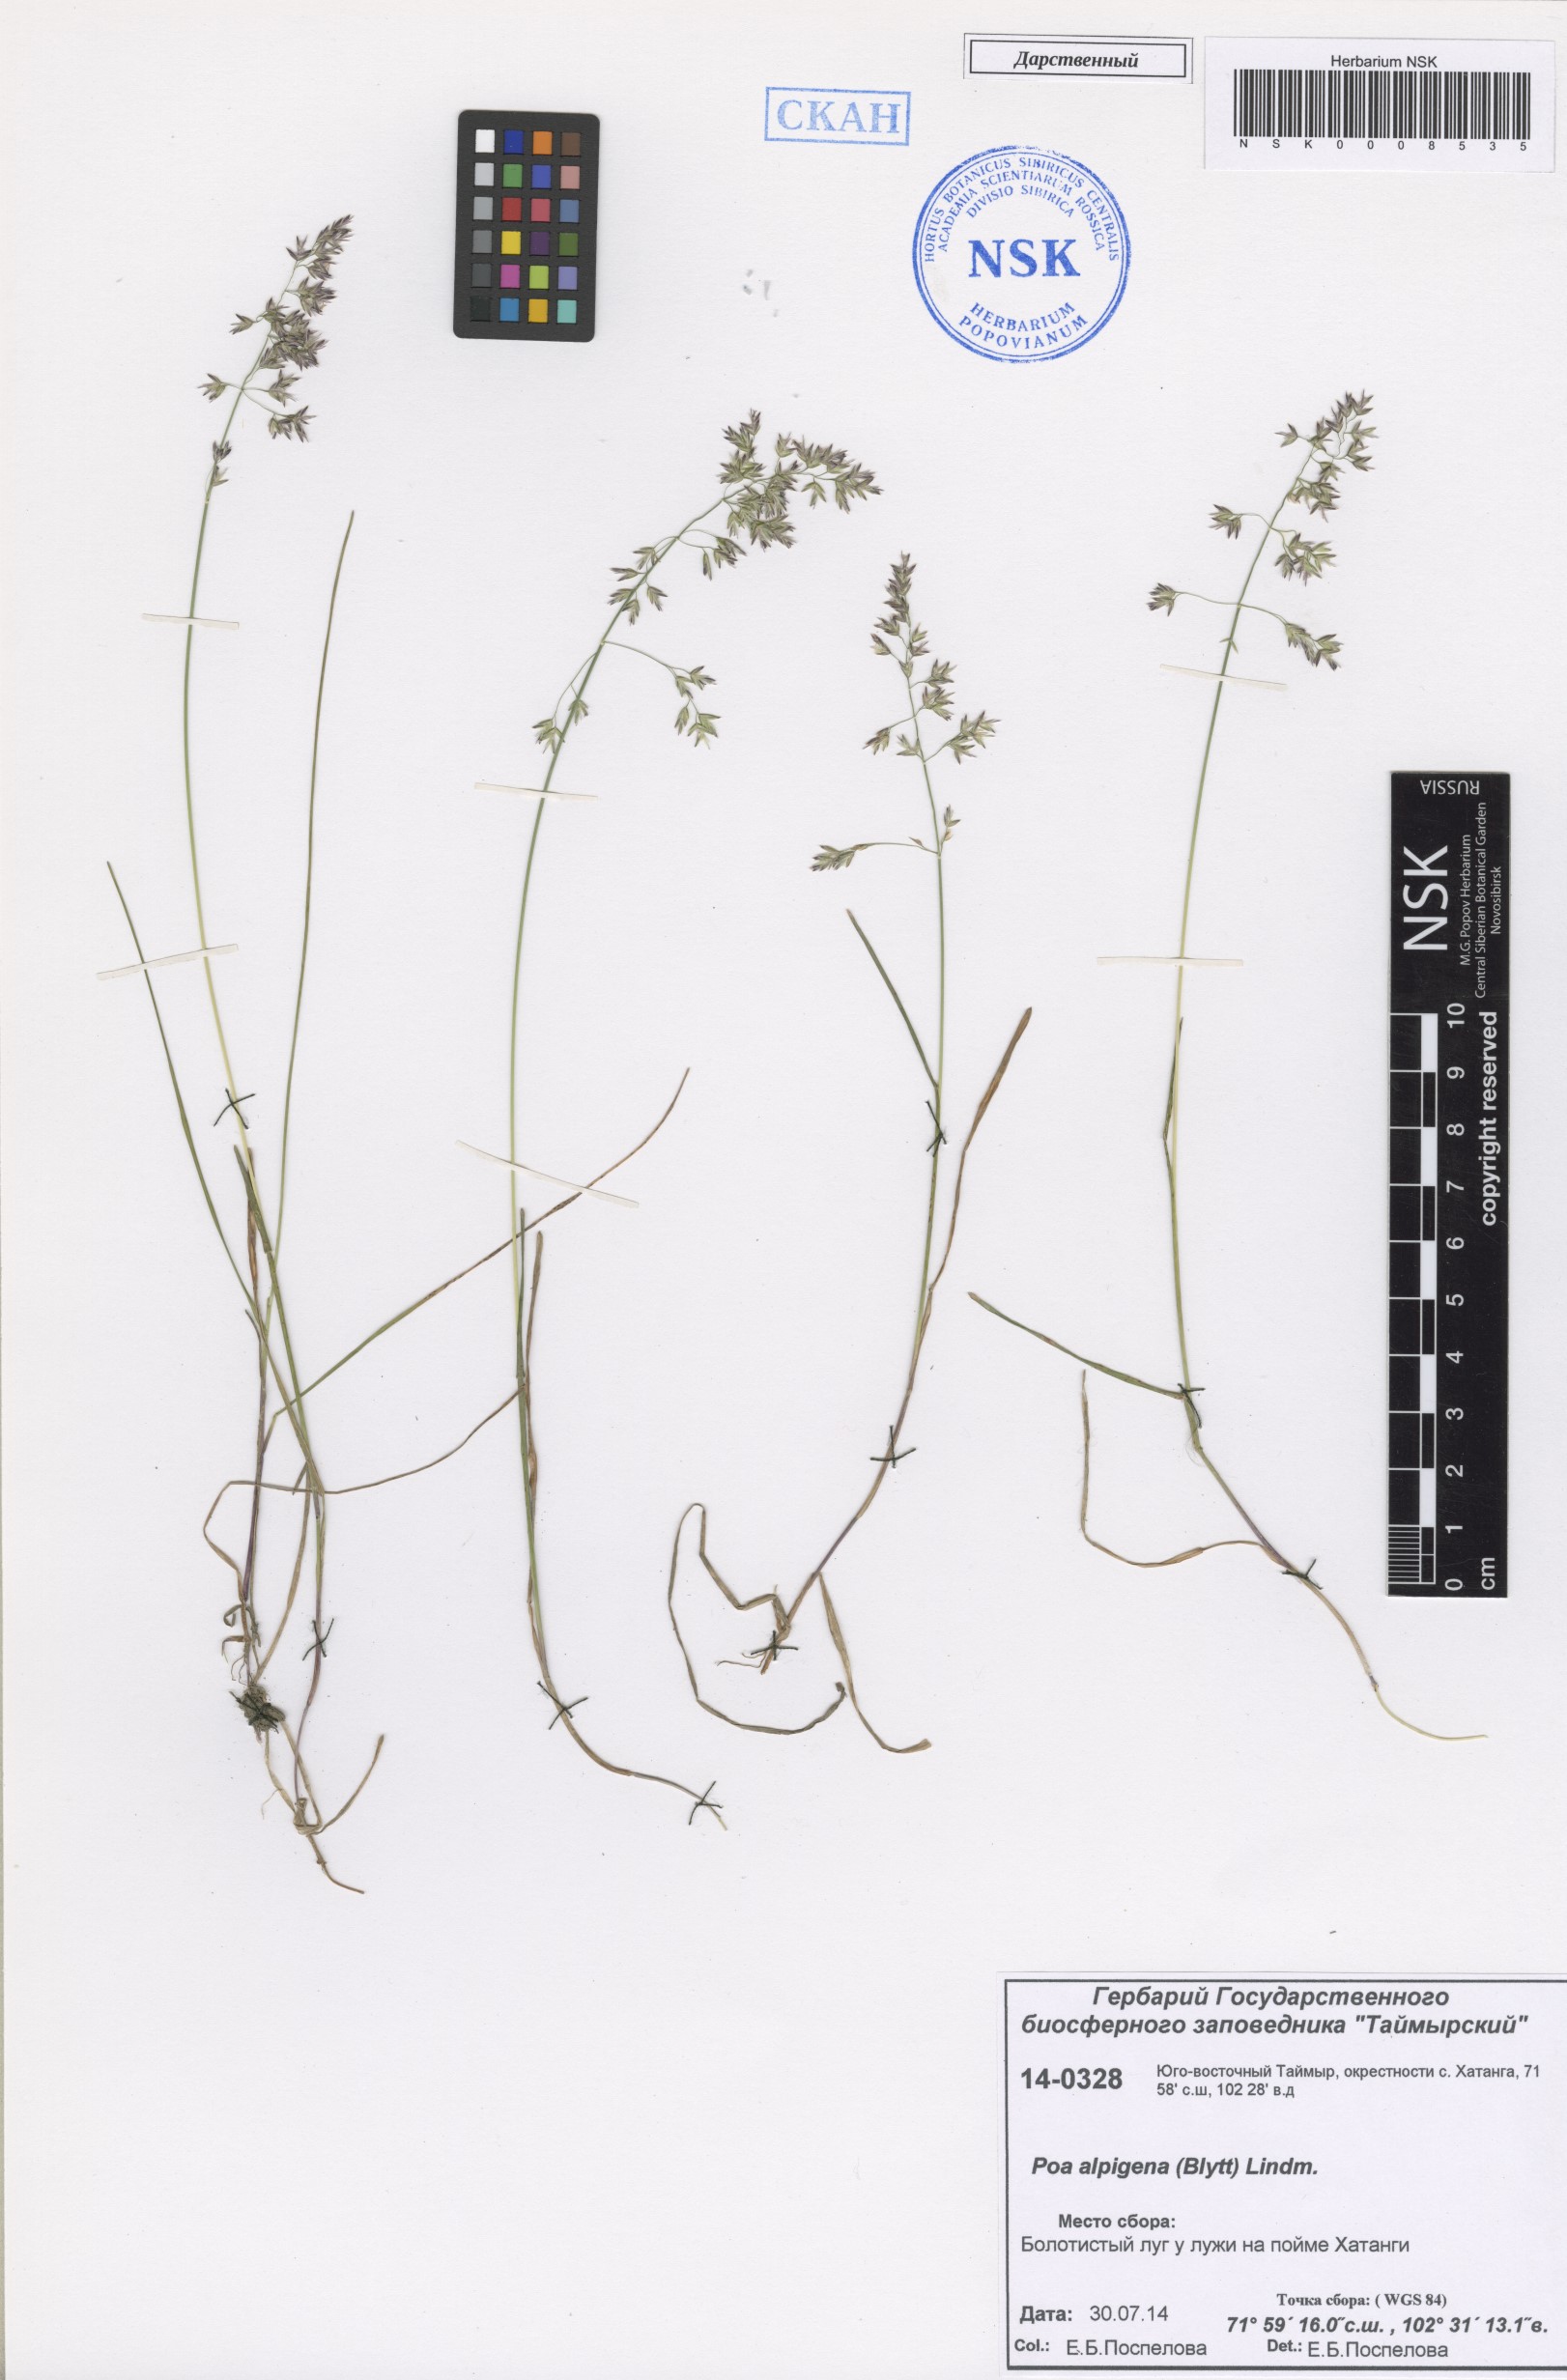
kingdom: Plantae
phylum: Tracheophyta
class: Liliopsida
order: Poales
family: Poaceae
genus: Poa
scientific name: Poa alpigena
